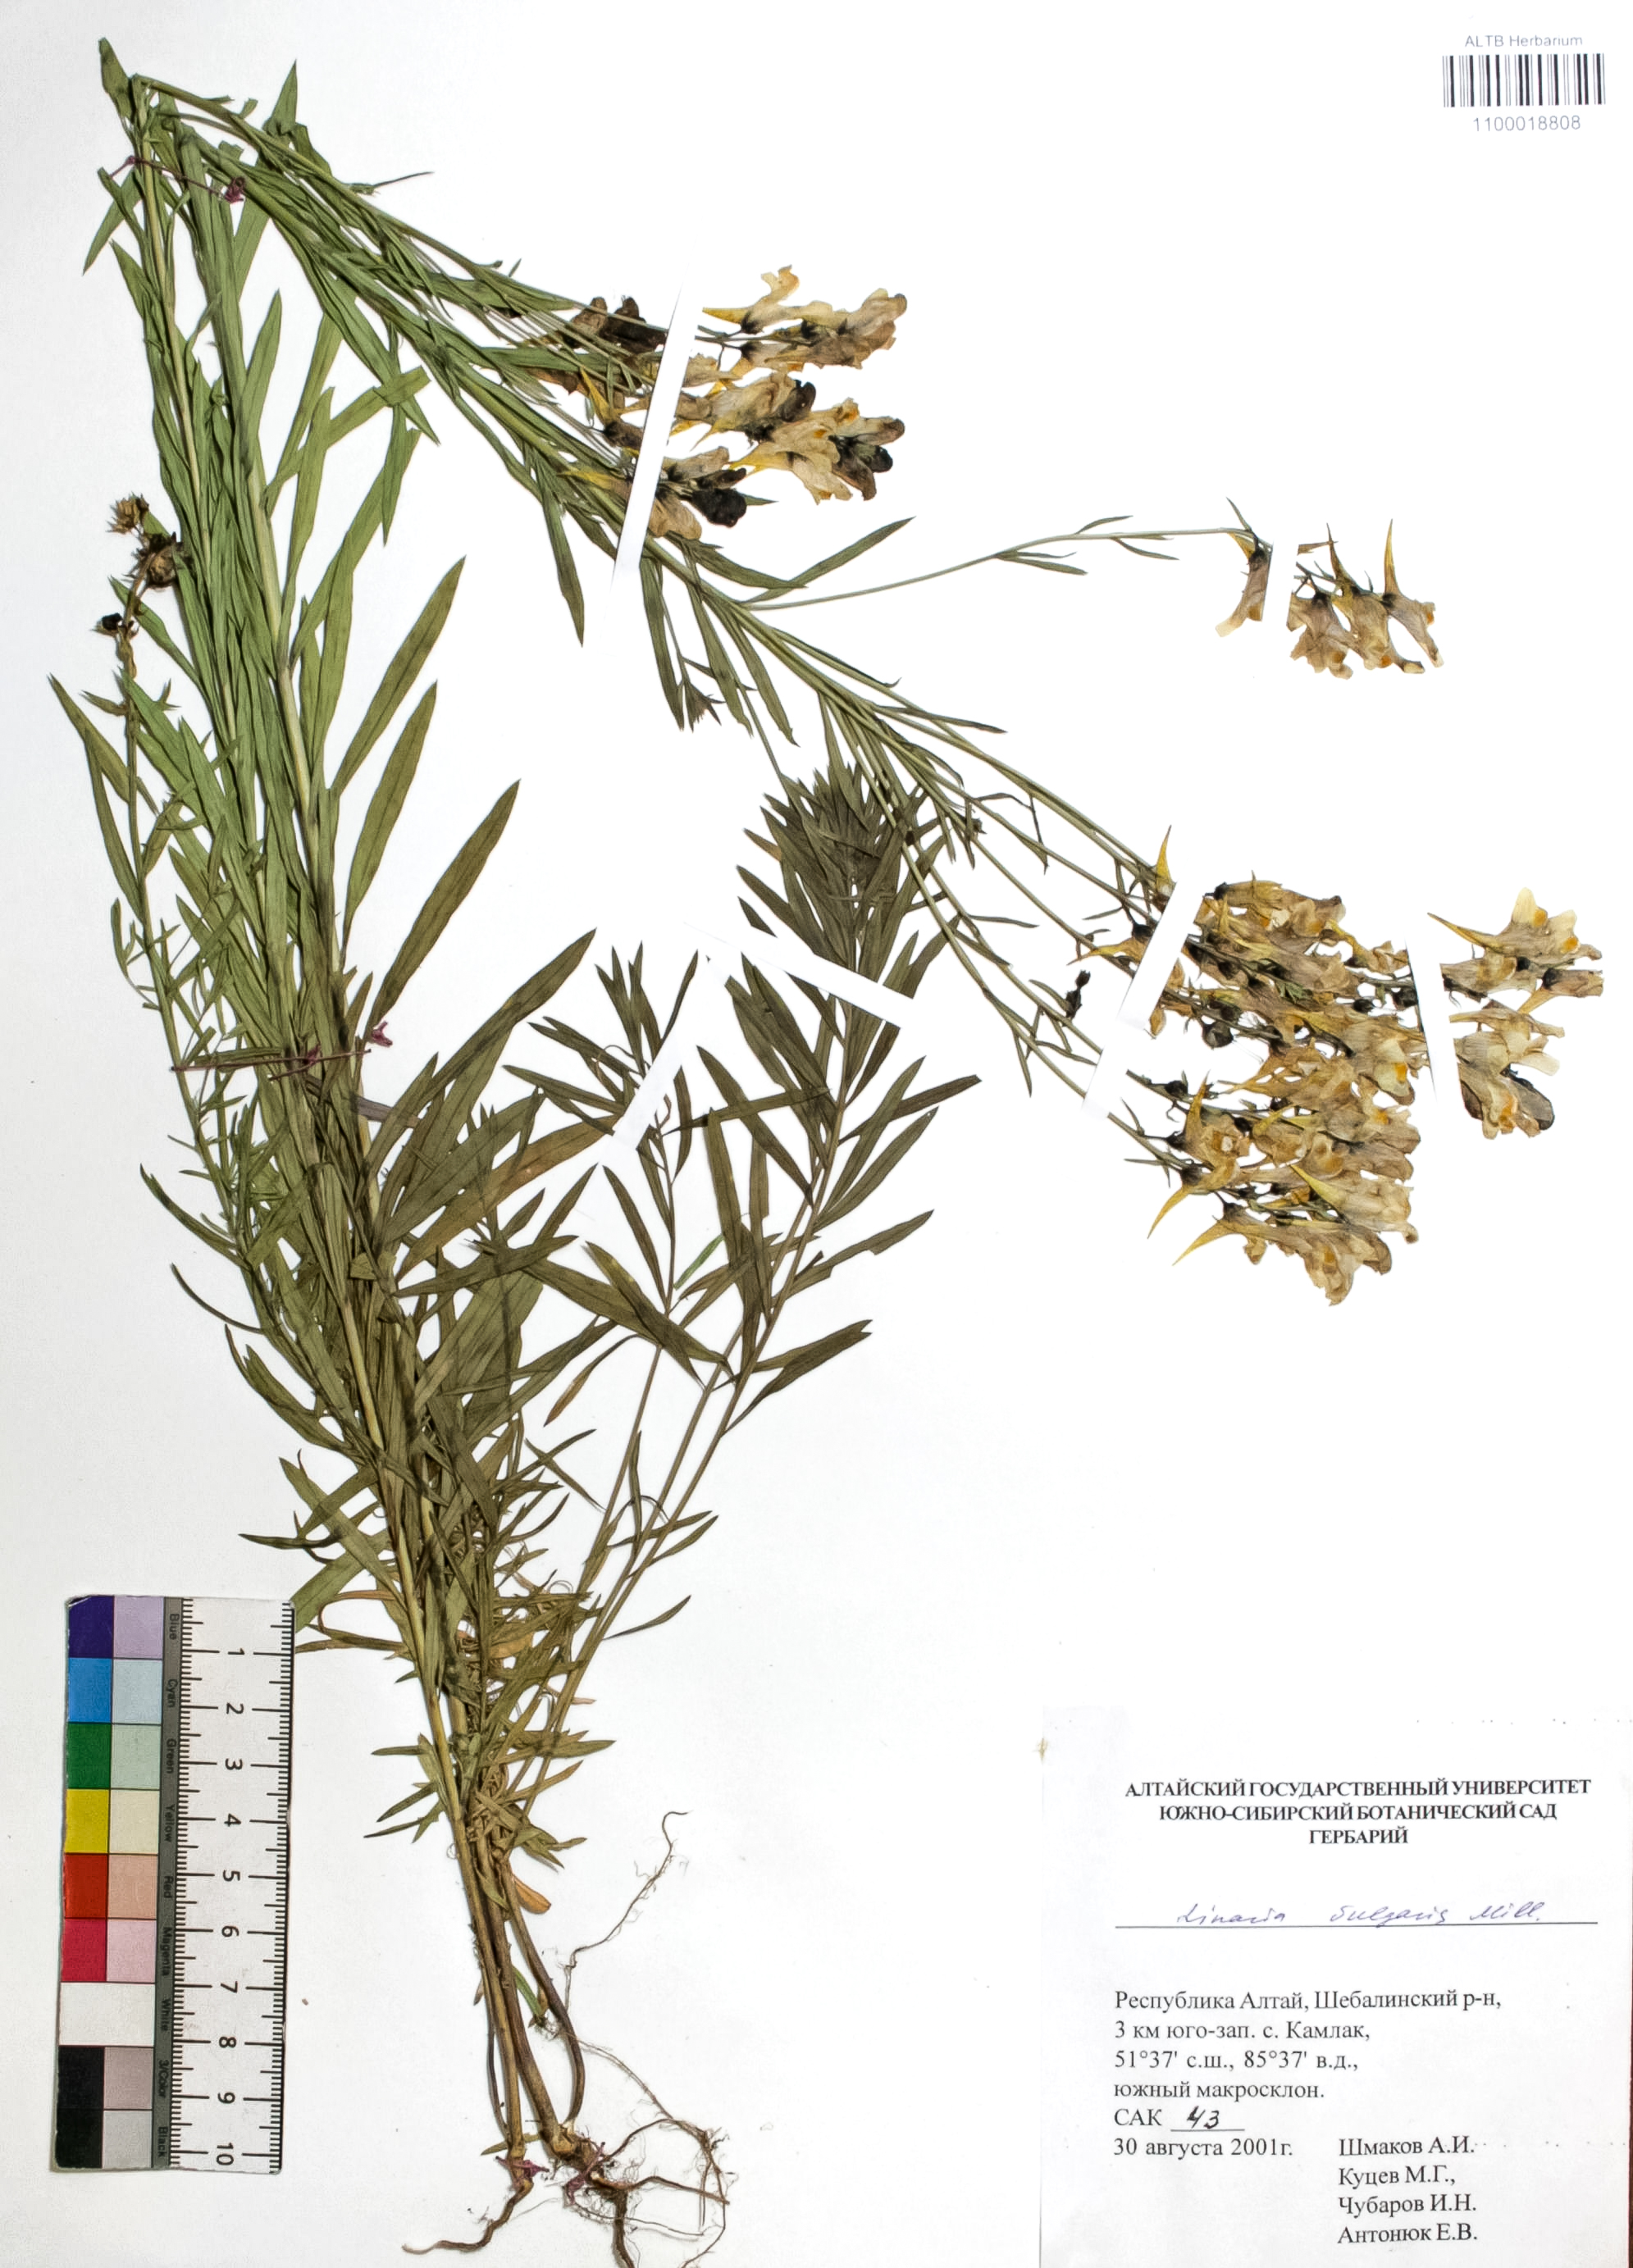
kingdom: Plantae
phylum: Tracheophyta
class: Magnoliopsida
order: Lamiales
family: Plantaginaceae
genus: Linaria
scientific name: Linaria vulgaris
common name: Butter and eggs
